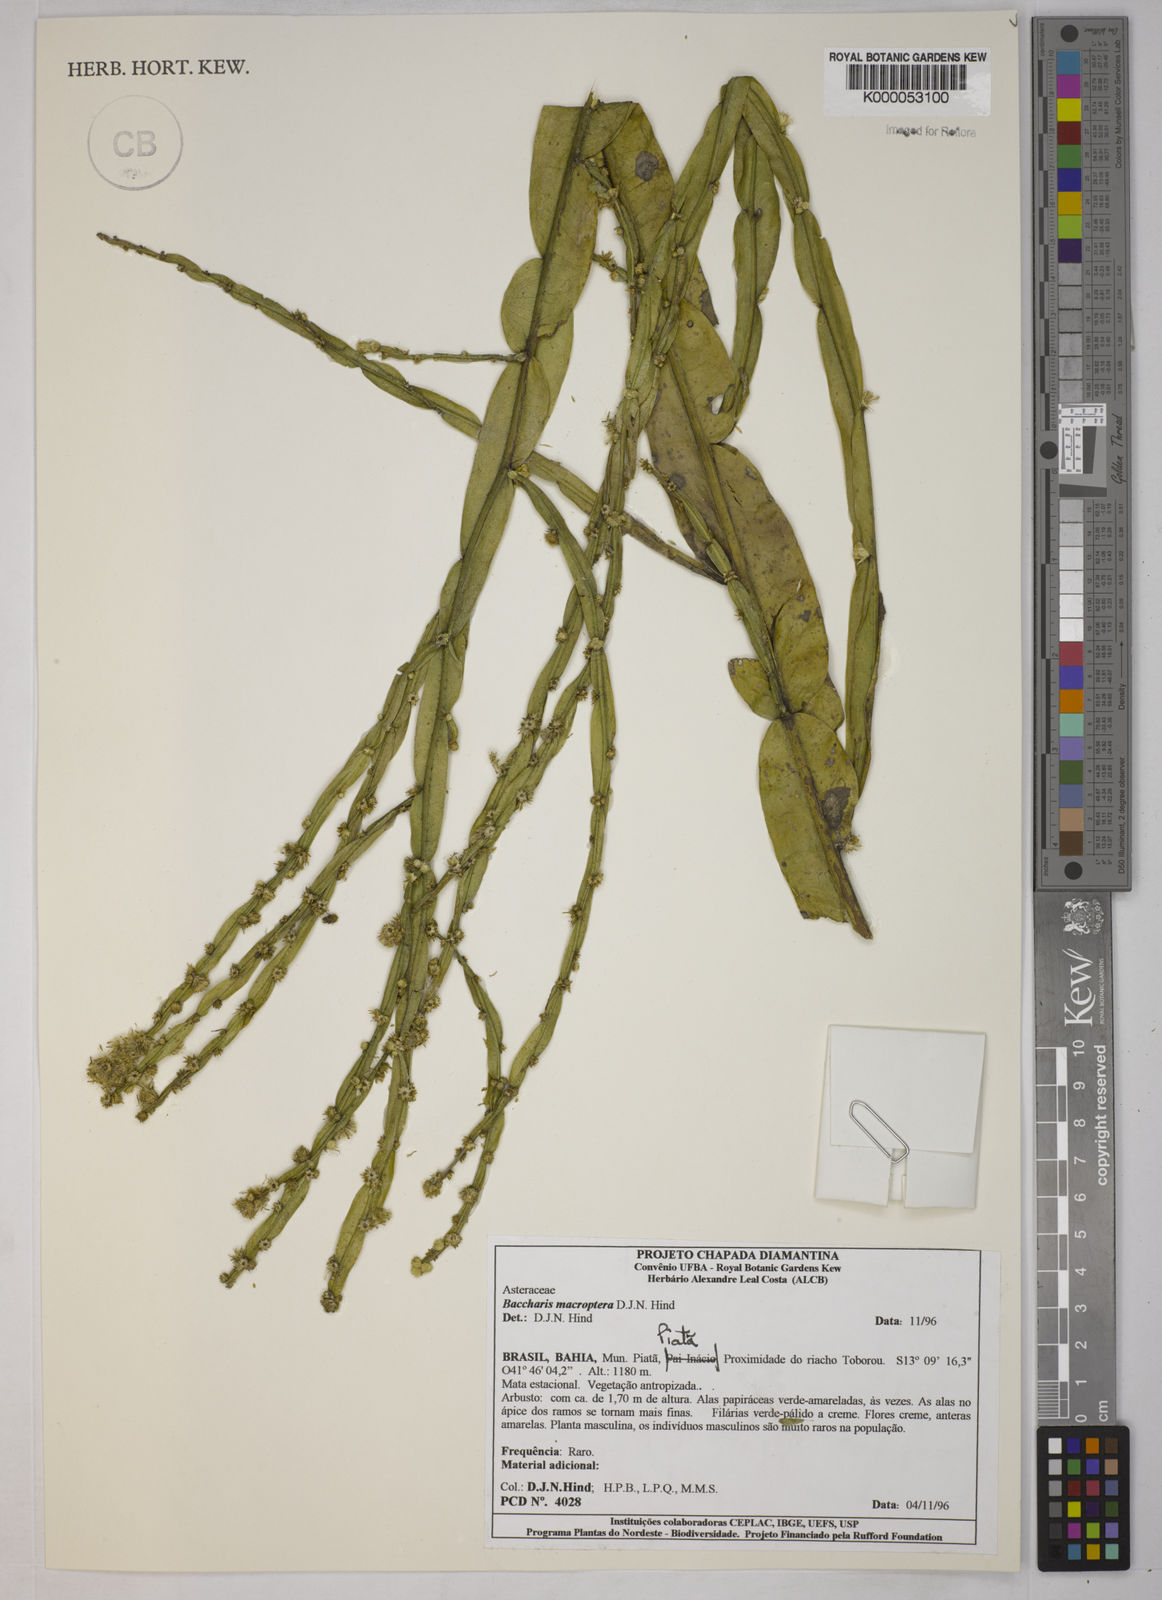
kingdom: Plantae
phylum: Tracheophyta
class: Magnoliopsida
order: Asterales
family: Asteraceae
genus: Baccharis
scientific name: Baccharis sagittalis
